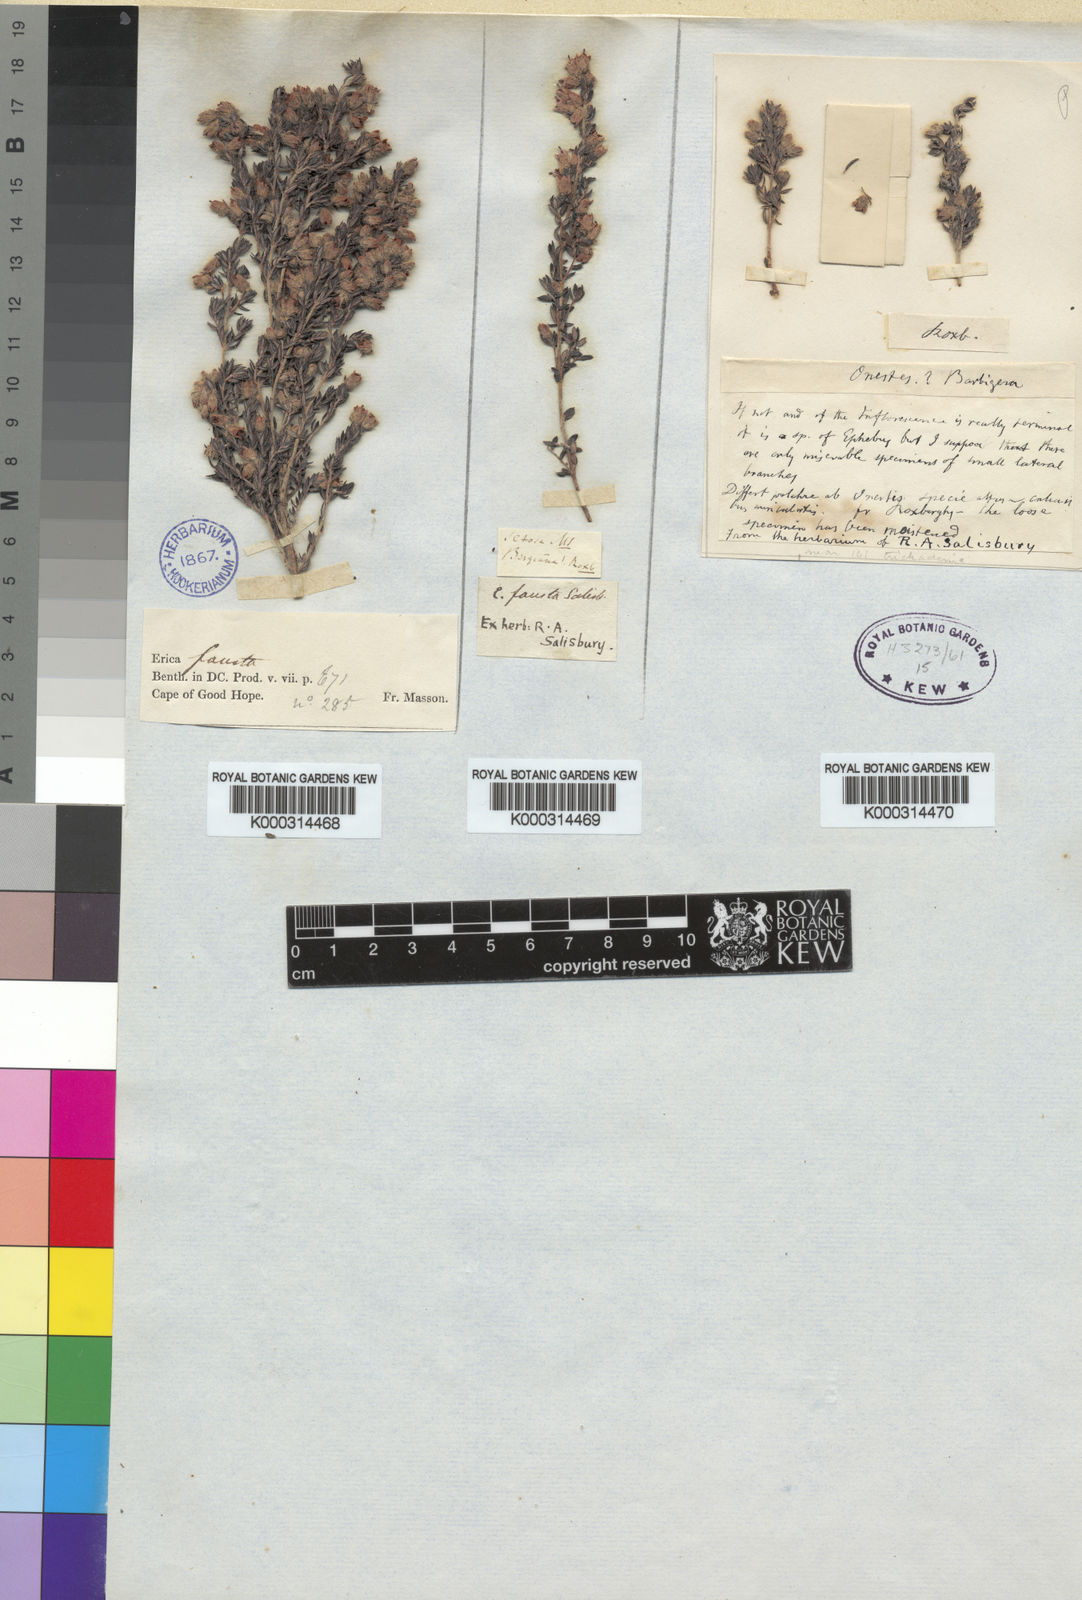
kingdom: Plantae
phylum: Tracheophyta
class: Magnoliopsida
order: Ericales
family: Ericaceae
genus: Erica
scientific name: Erica fausta
